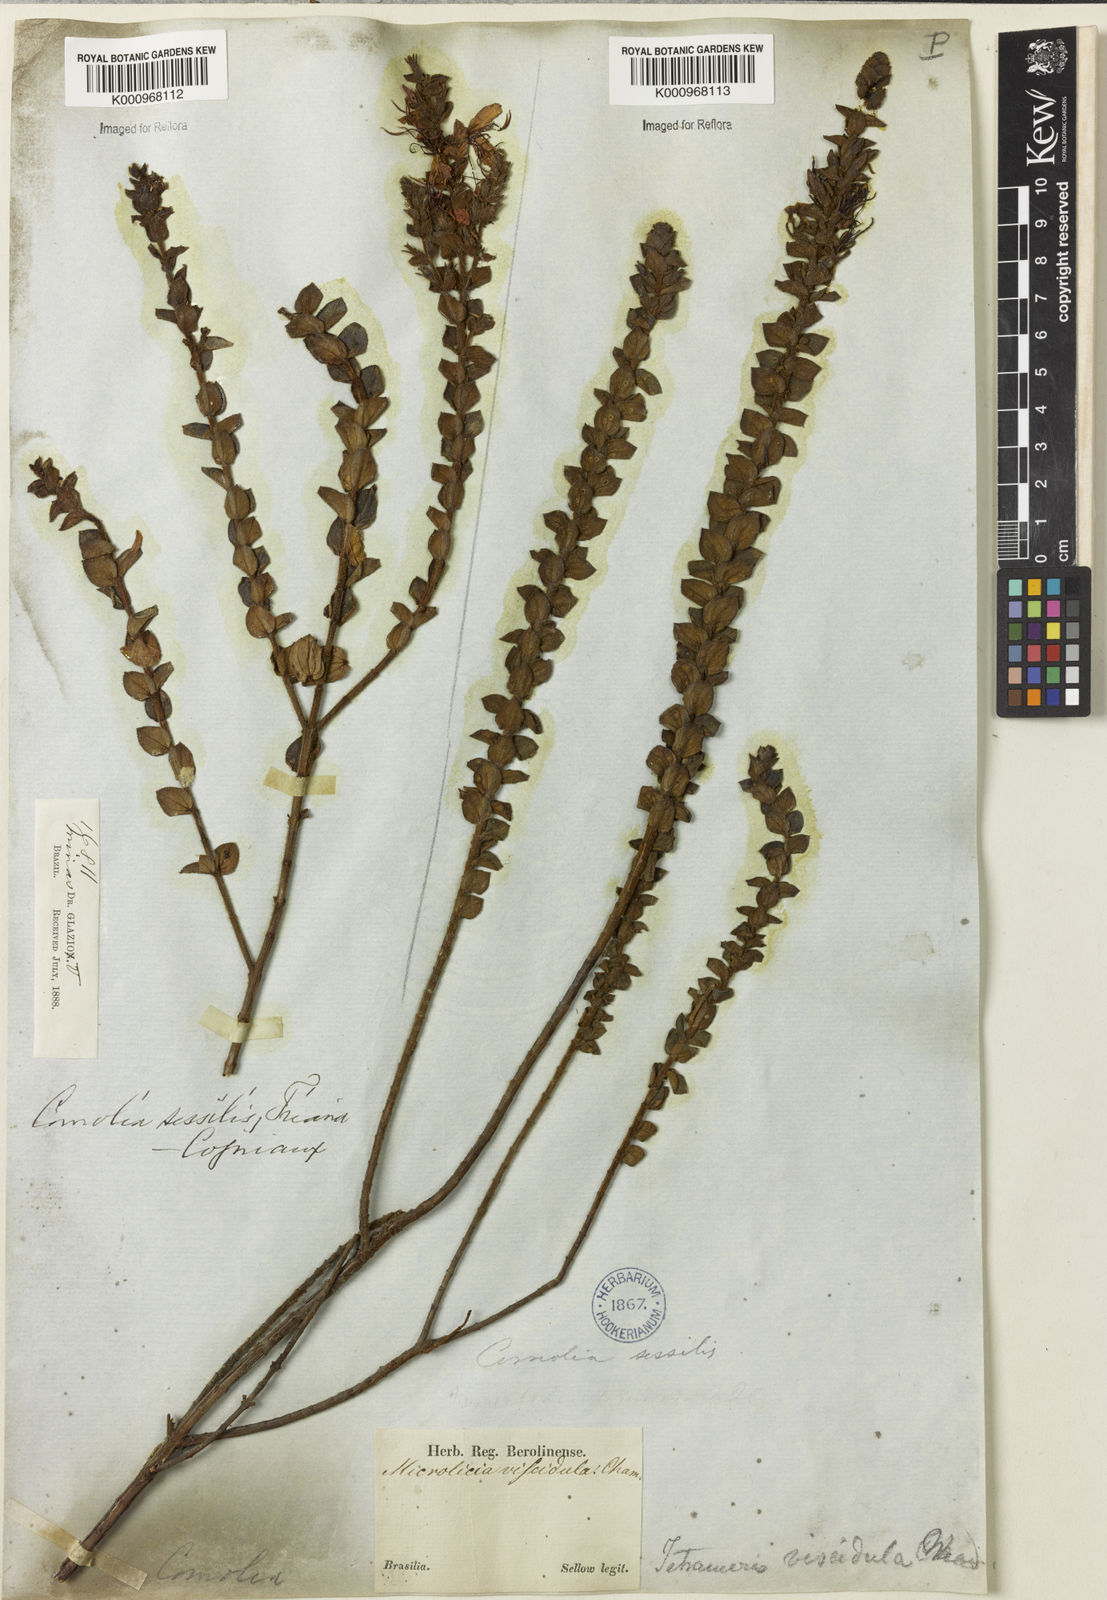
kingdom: Plantae
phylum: Tracheophyta
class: Magnoliopsida
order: Myrtales
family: Melastomataceae
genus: Fritzschia
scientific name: Fritzschia sessilis
